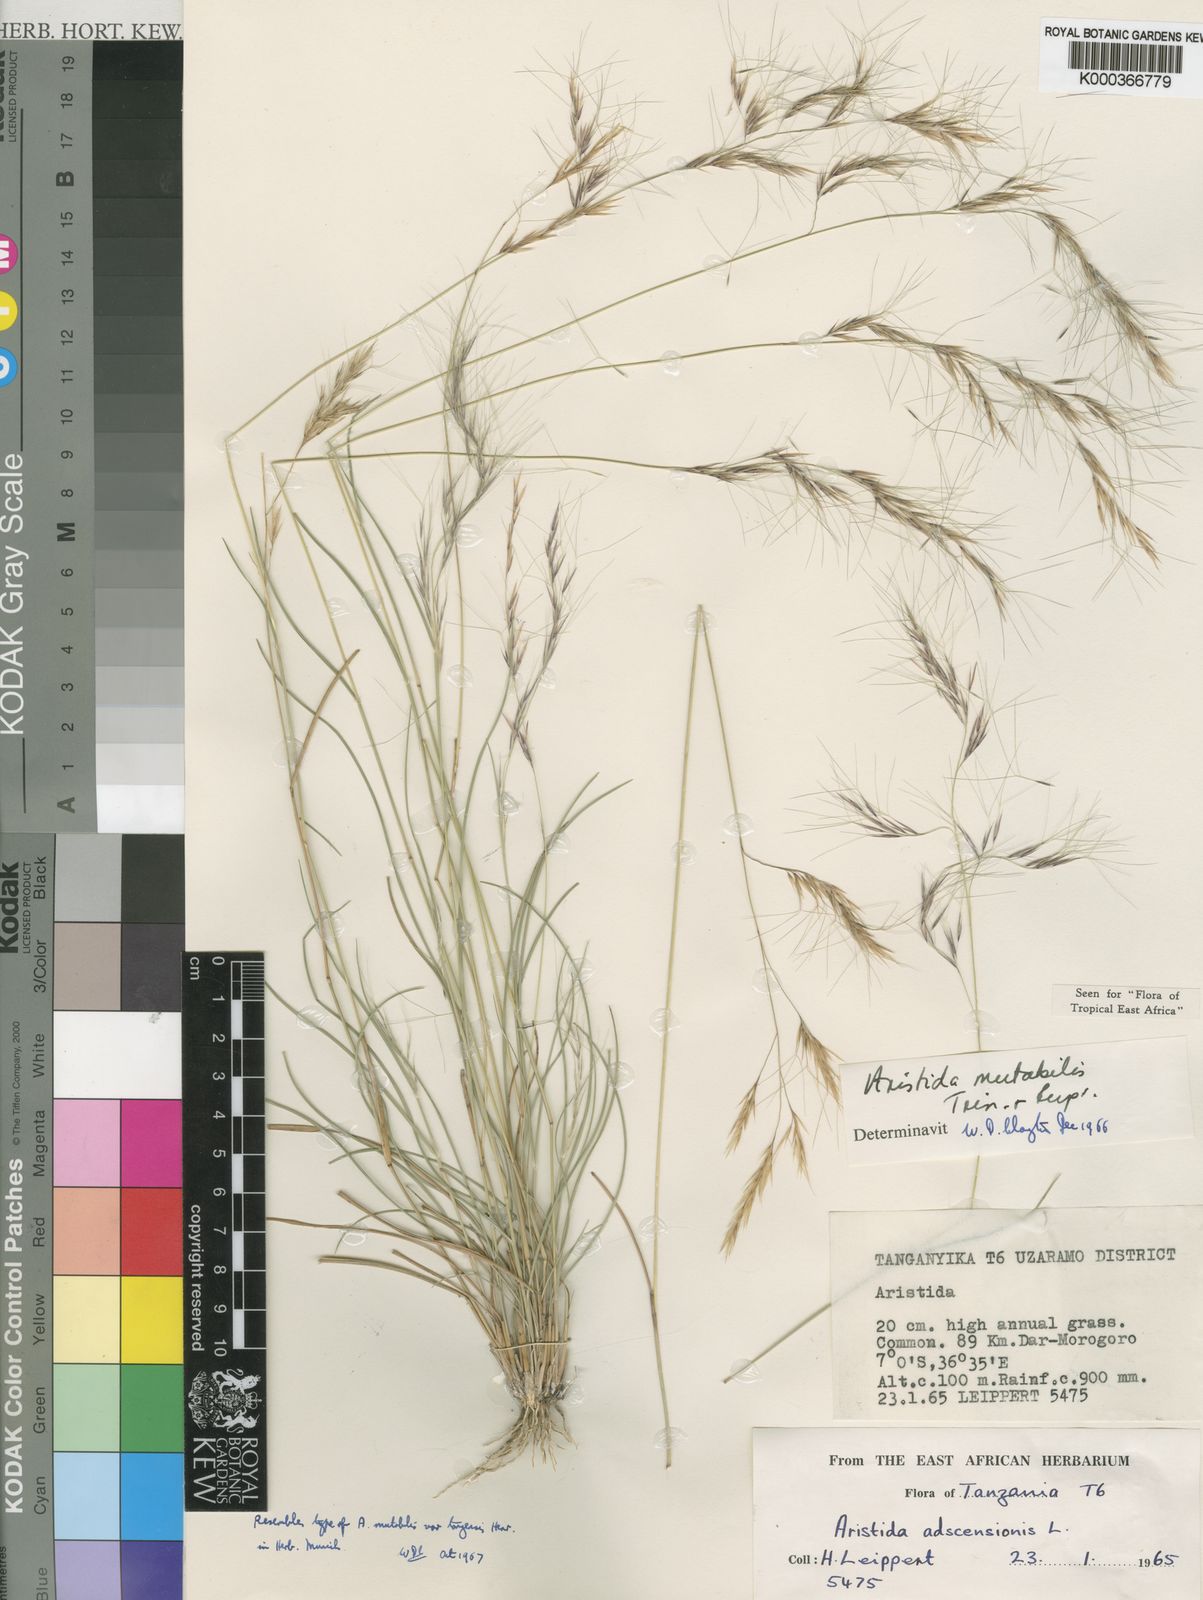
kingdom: Plantae
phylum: Tracheophyta
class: Liliopsida
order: Poales
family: Poaceae
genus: Aristida
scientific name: Aristida mutabilis
